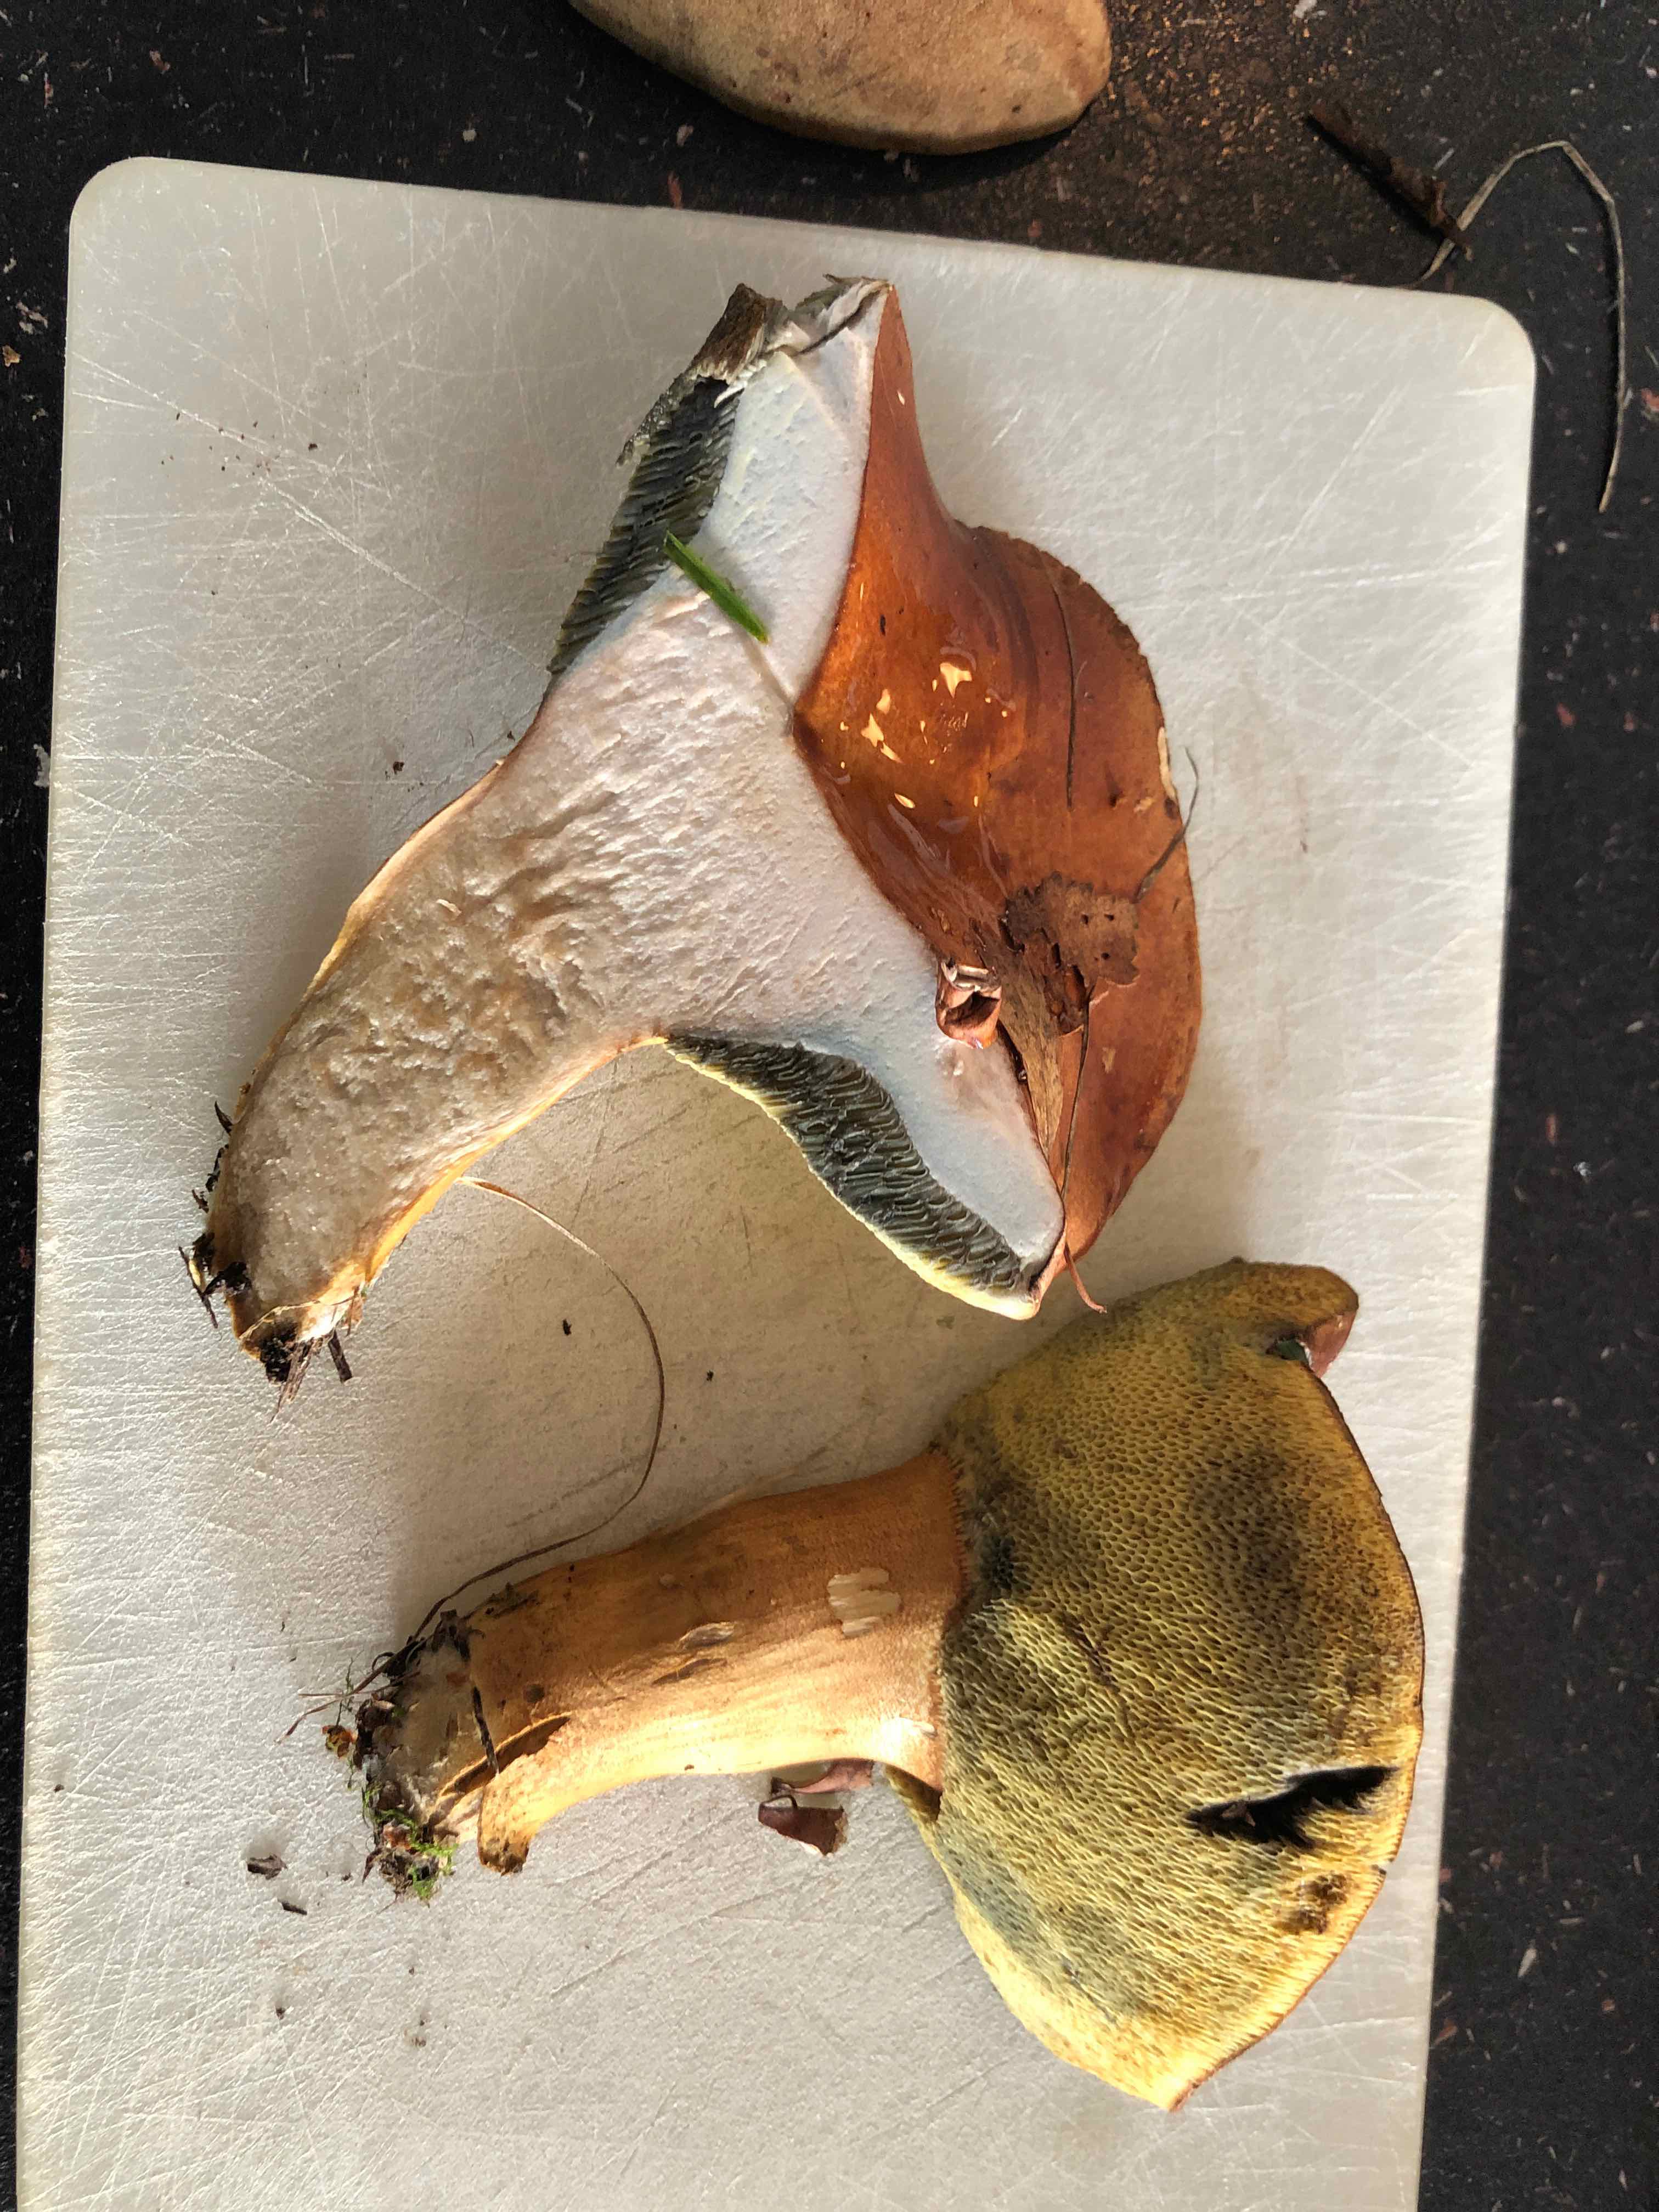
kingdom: Fungi
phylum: Basidiomycota
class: Agaricomycetes
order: Boletales
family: Boletaceae
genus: Imleria
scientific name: Imleria badia
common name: brunstokket rørhat
